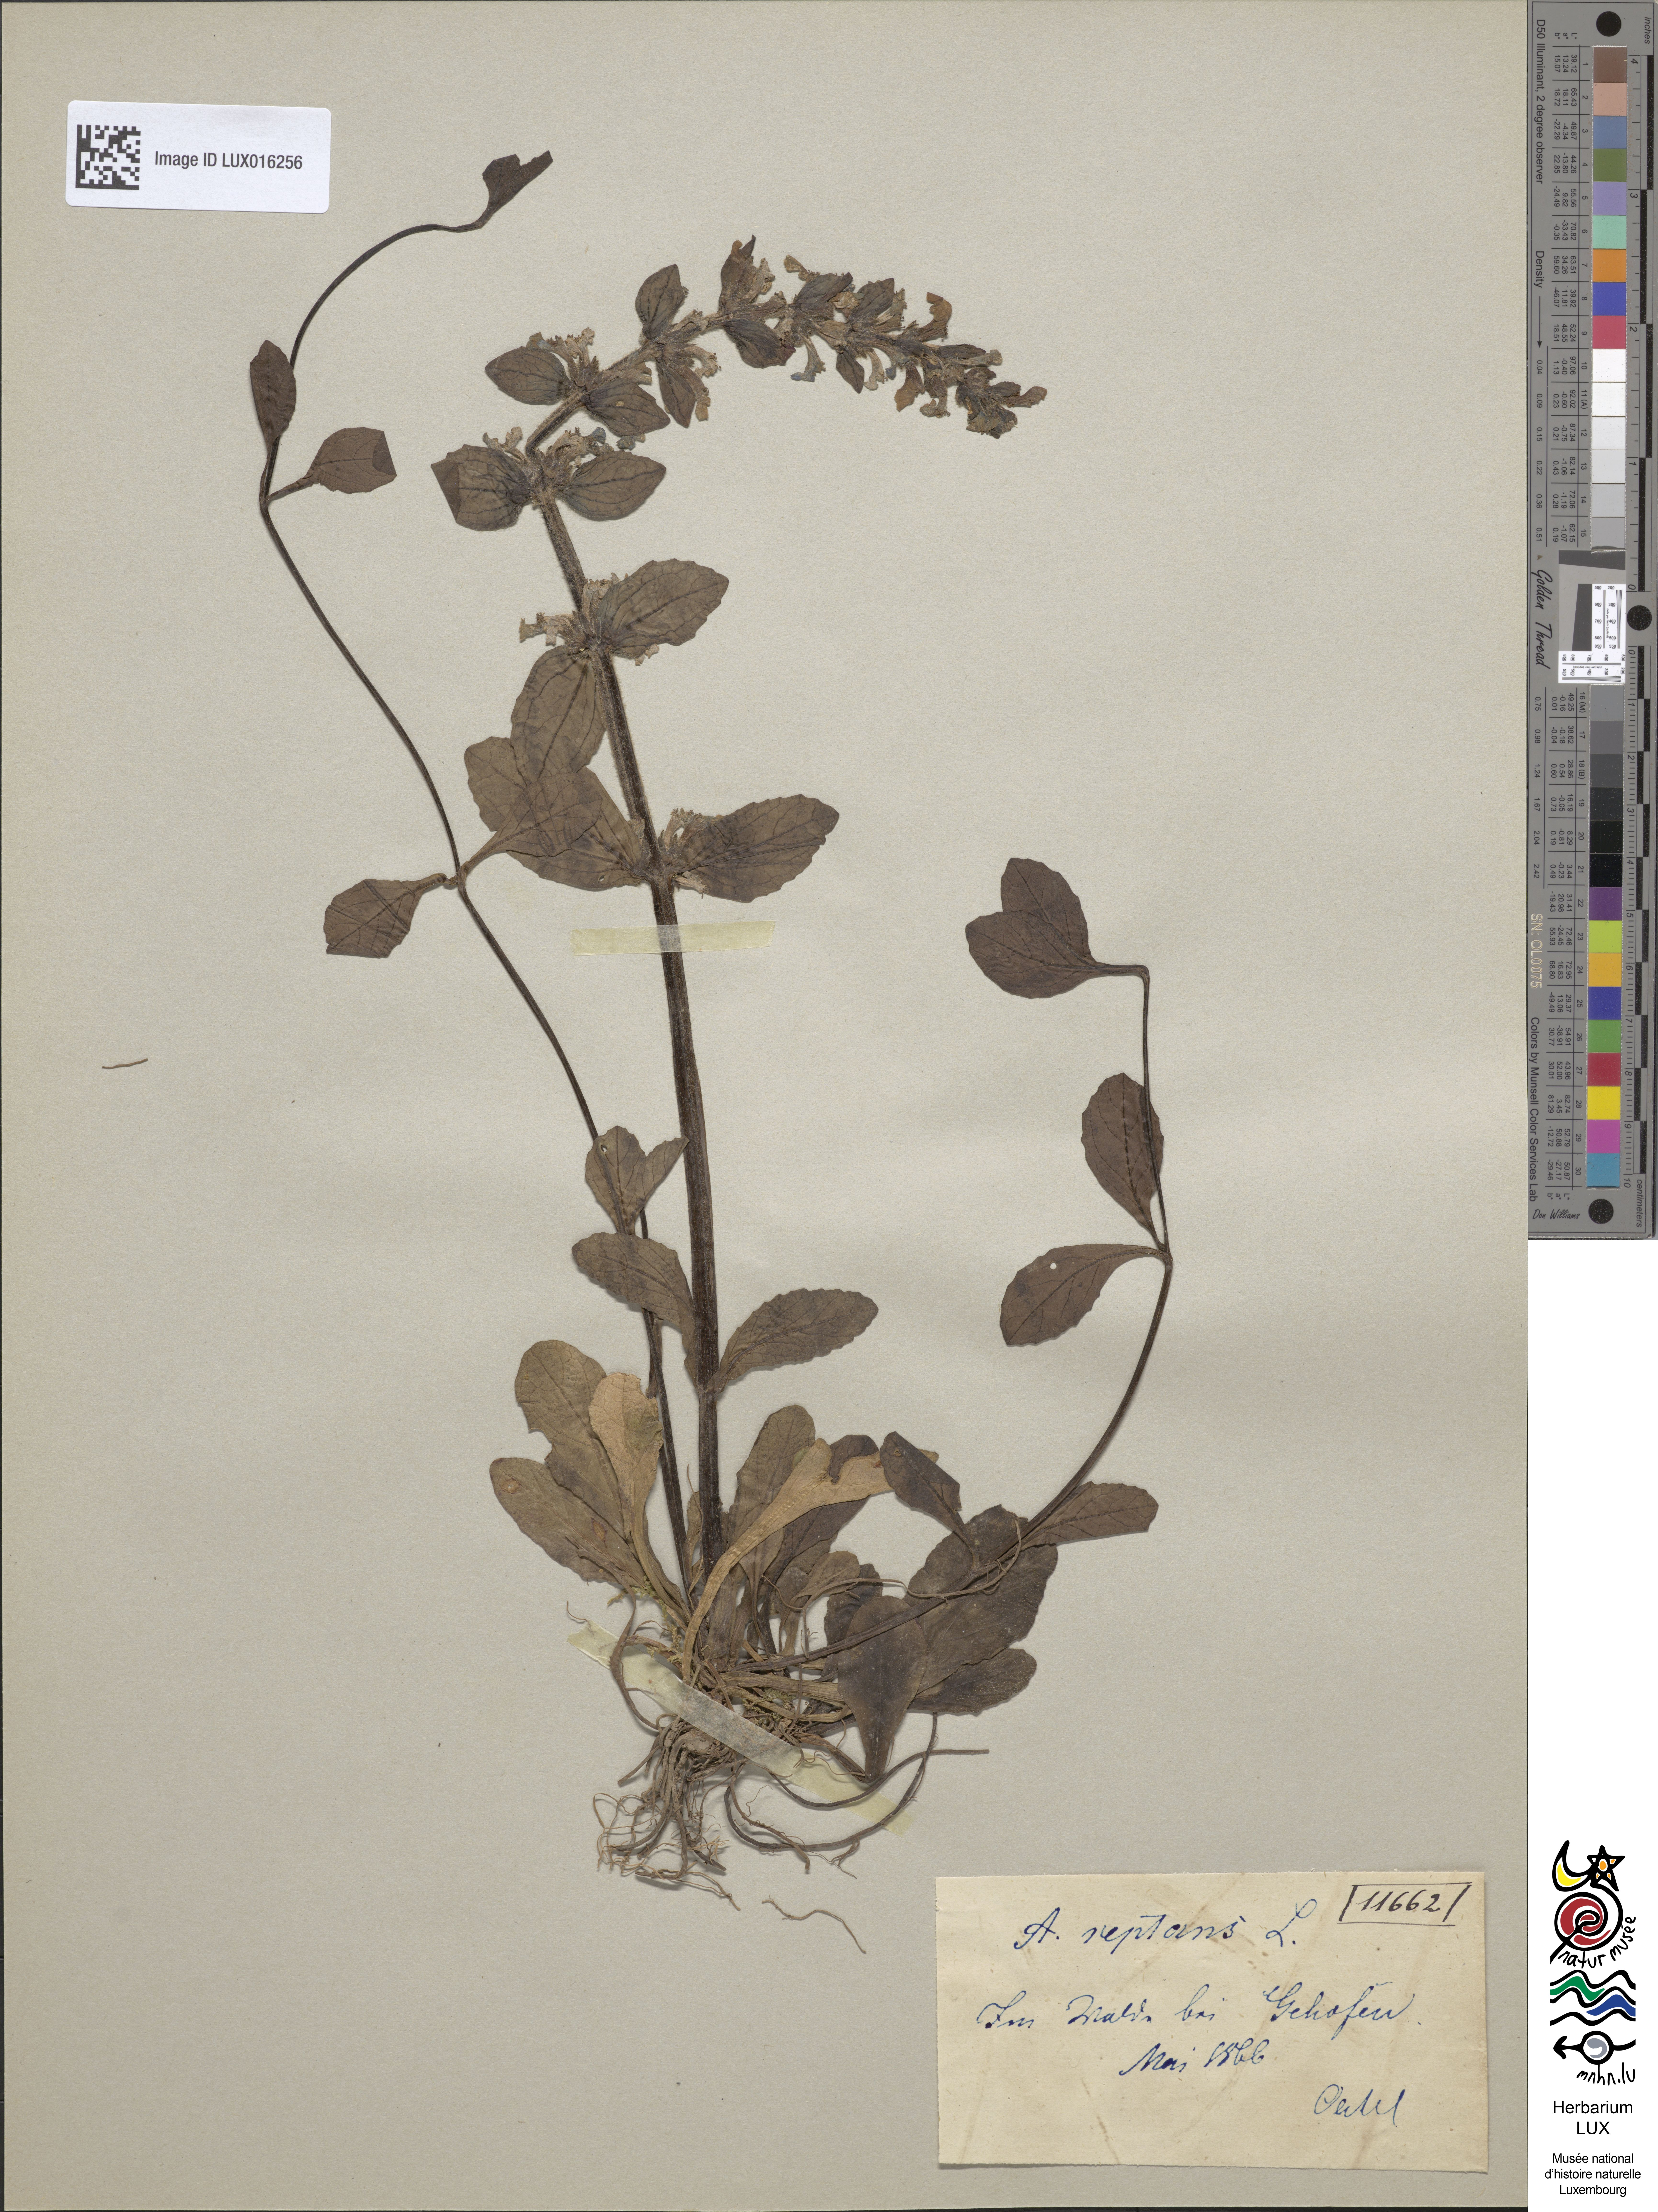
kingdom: Plantae
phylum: Tracheophyta
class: Magnoliopsida
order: Lamiales
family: Lamiaceae
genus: Ajuga
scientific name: Ajuga reptans
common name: Bugle
